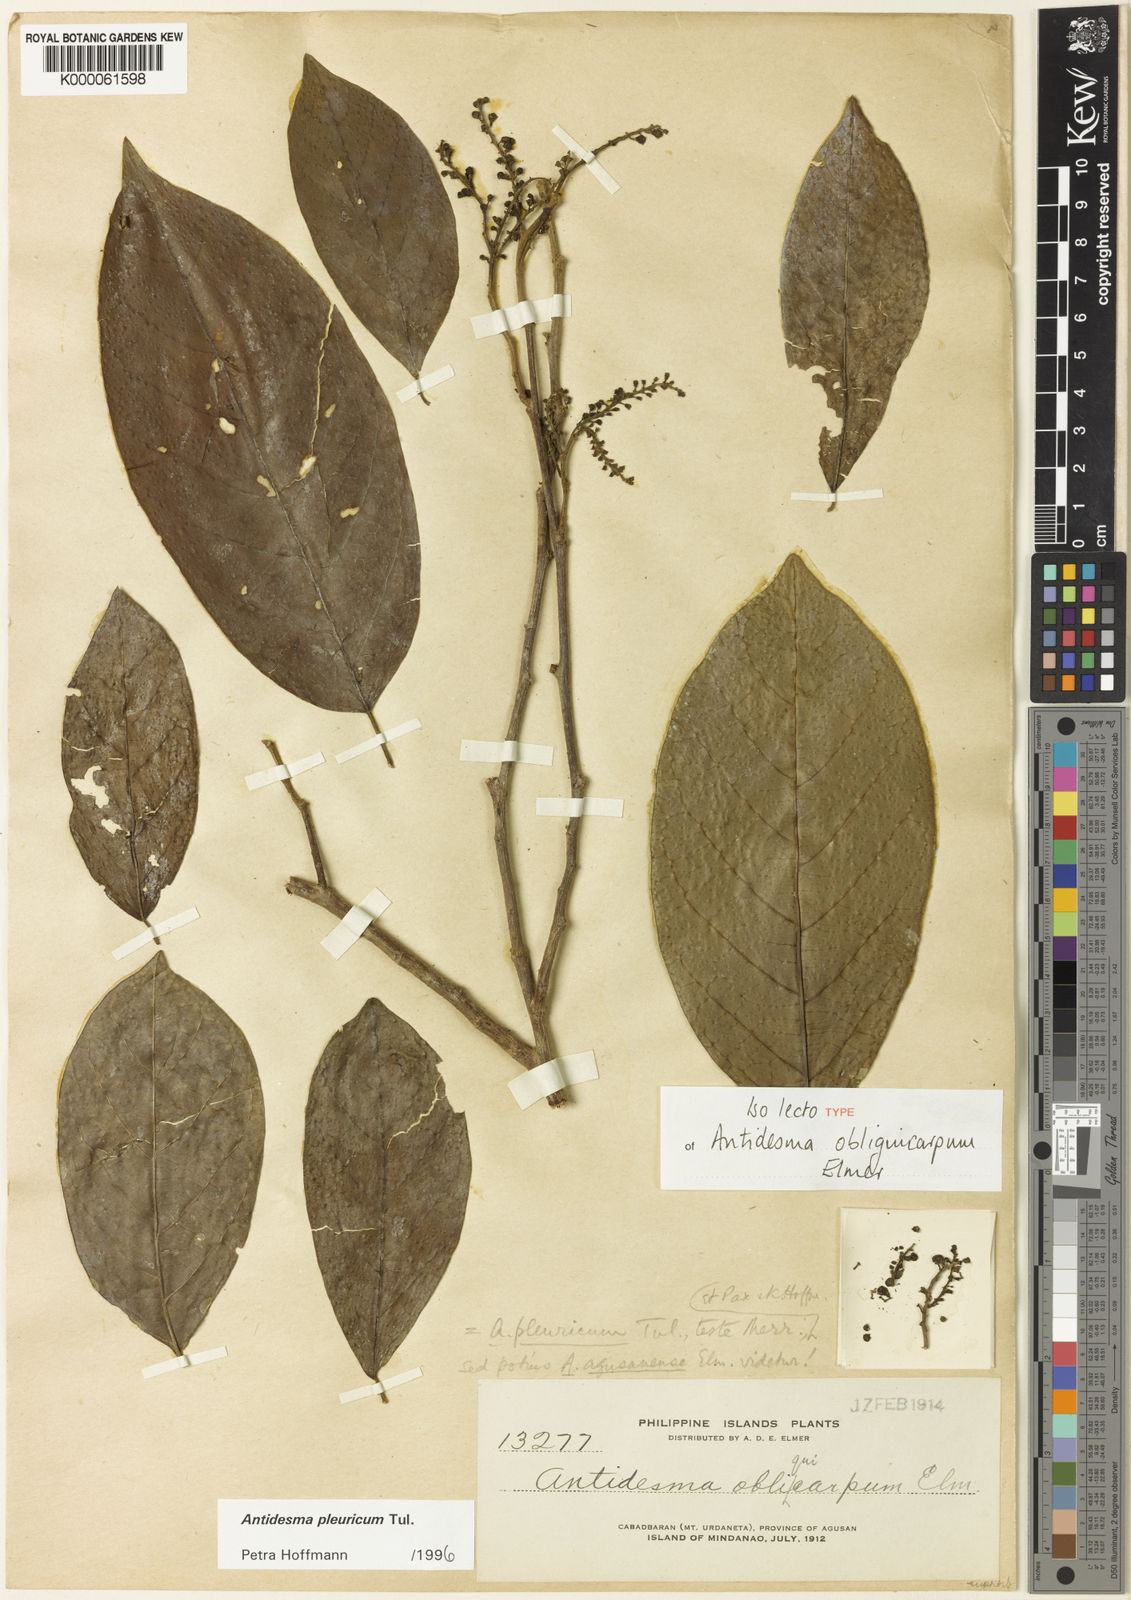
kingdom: Plantae
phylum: Tracheophyta
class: Magnoliopsida
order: Malpighiales
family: Phyllanthaceae
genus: Antidesma
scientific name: Antidesma pleuricum
